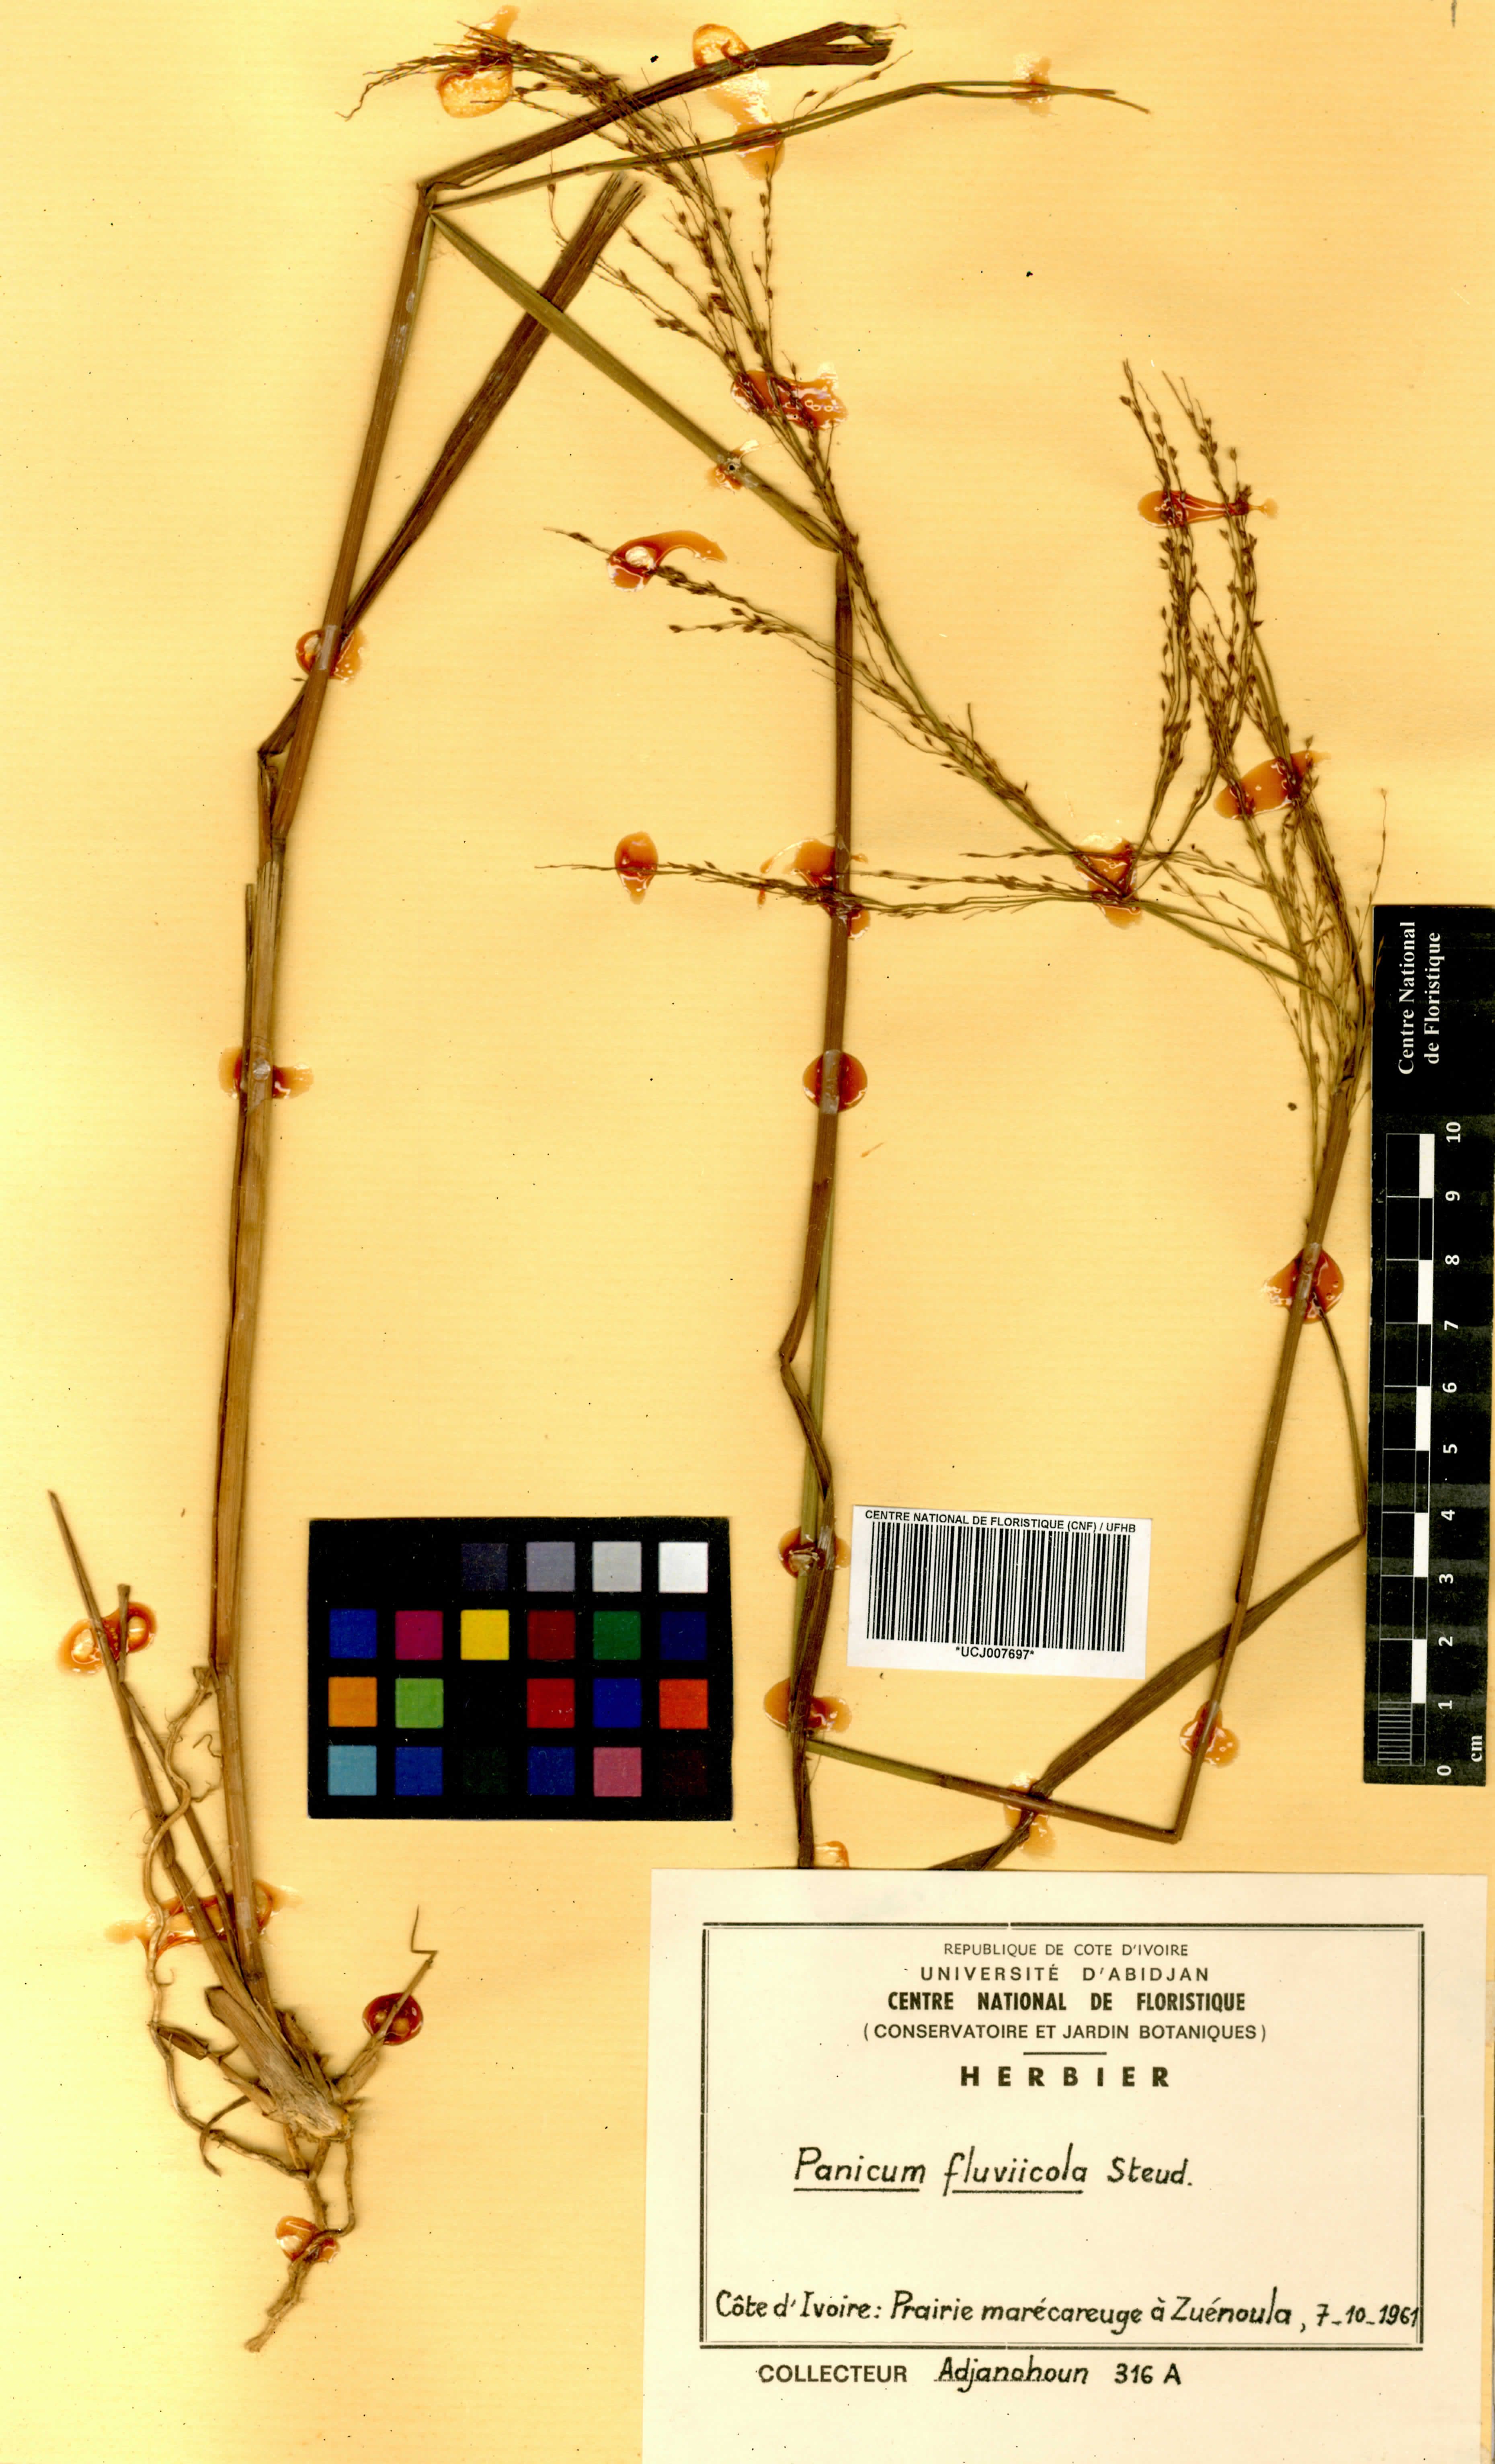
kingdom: Plantae
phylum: Tracheophyta
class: Liliopsida
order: Poales
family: Poaceae
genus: Panicum
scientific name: Panicum fluviicola
